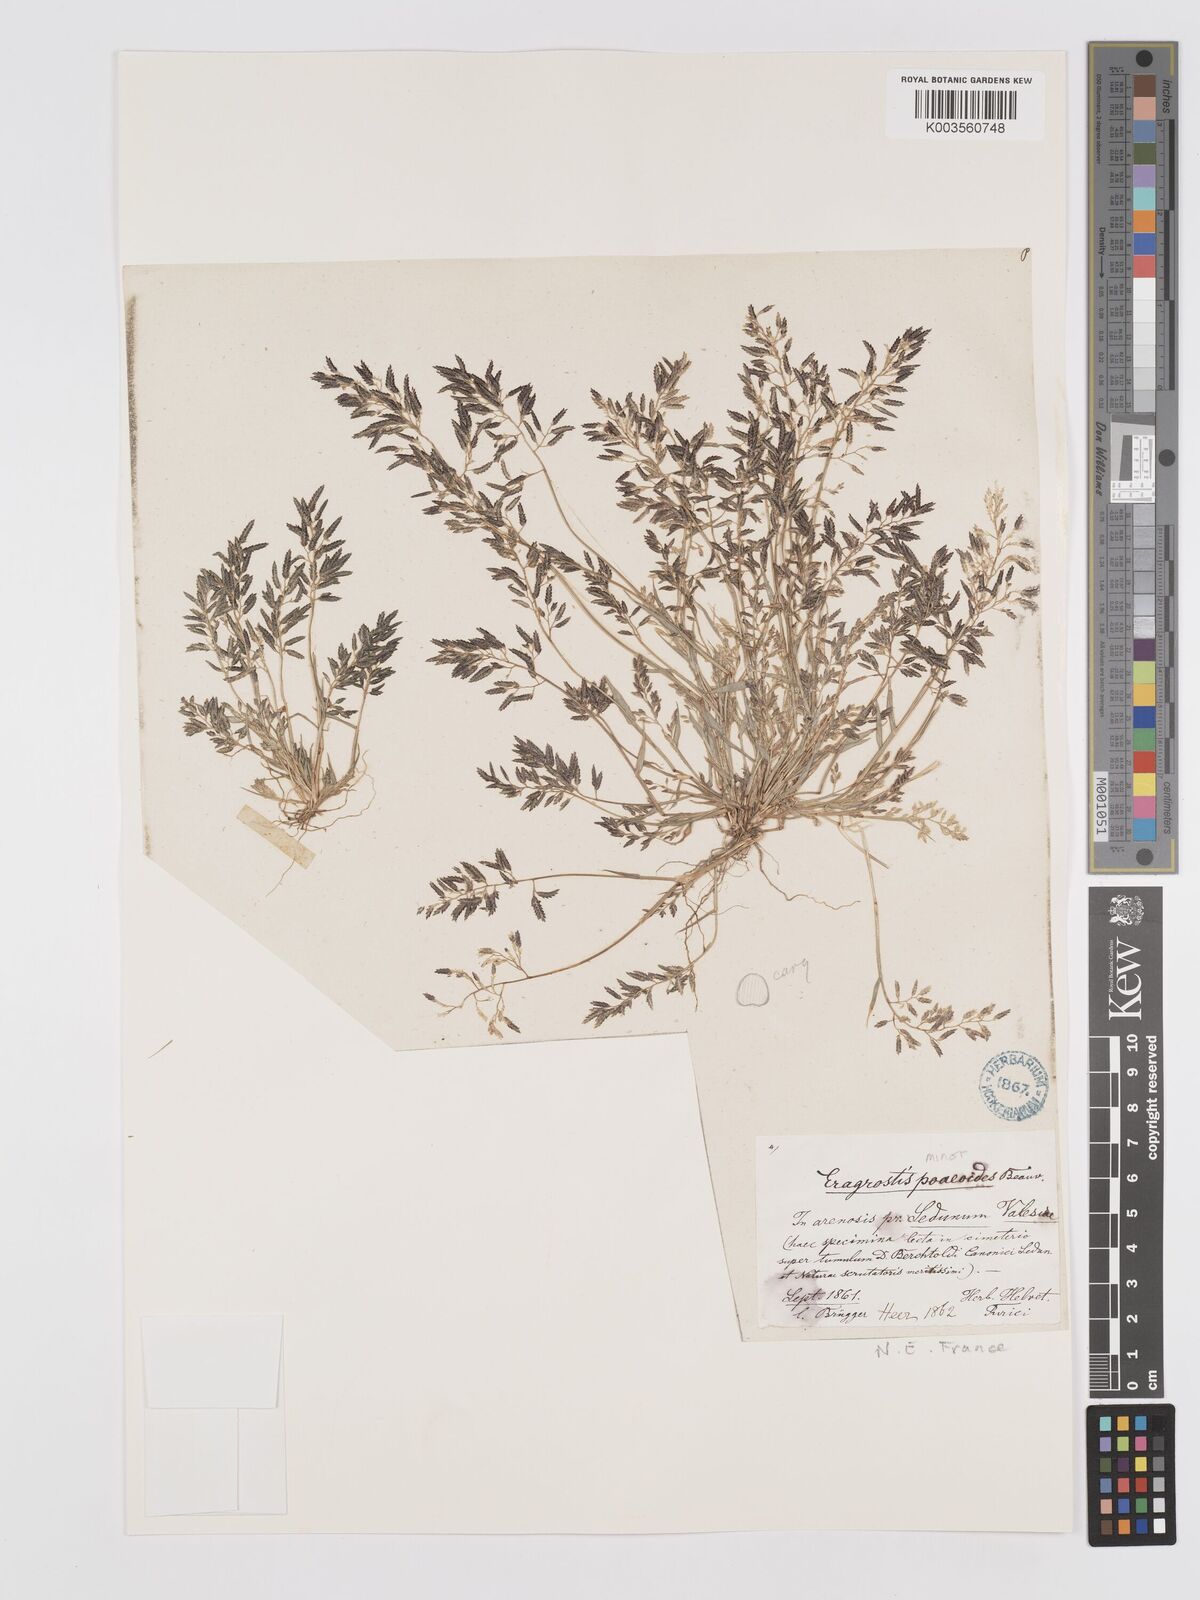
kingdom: Plantae
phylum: Tracheophyta
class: Liliopsida
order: Poales
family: Poaceae
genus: Eragrostis
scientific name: Eragrostis minor
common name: Small love-grass
